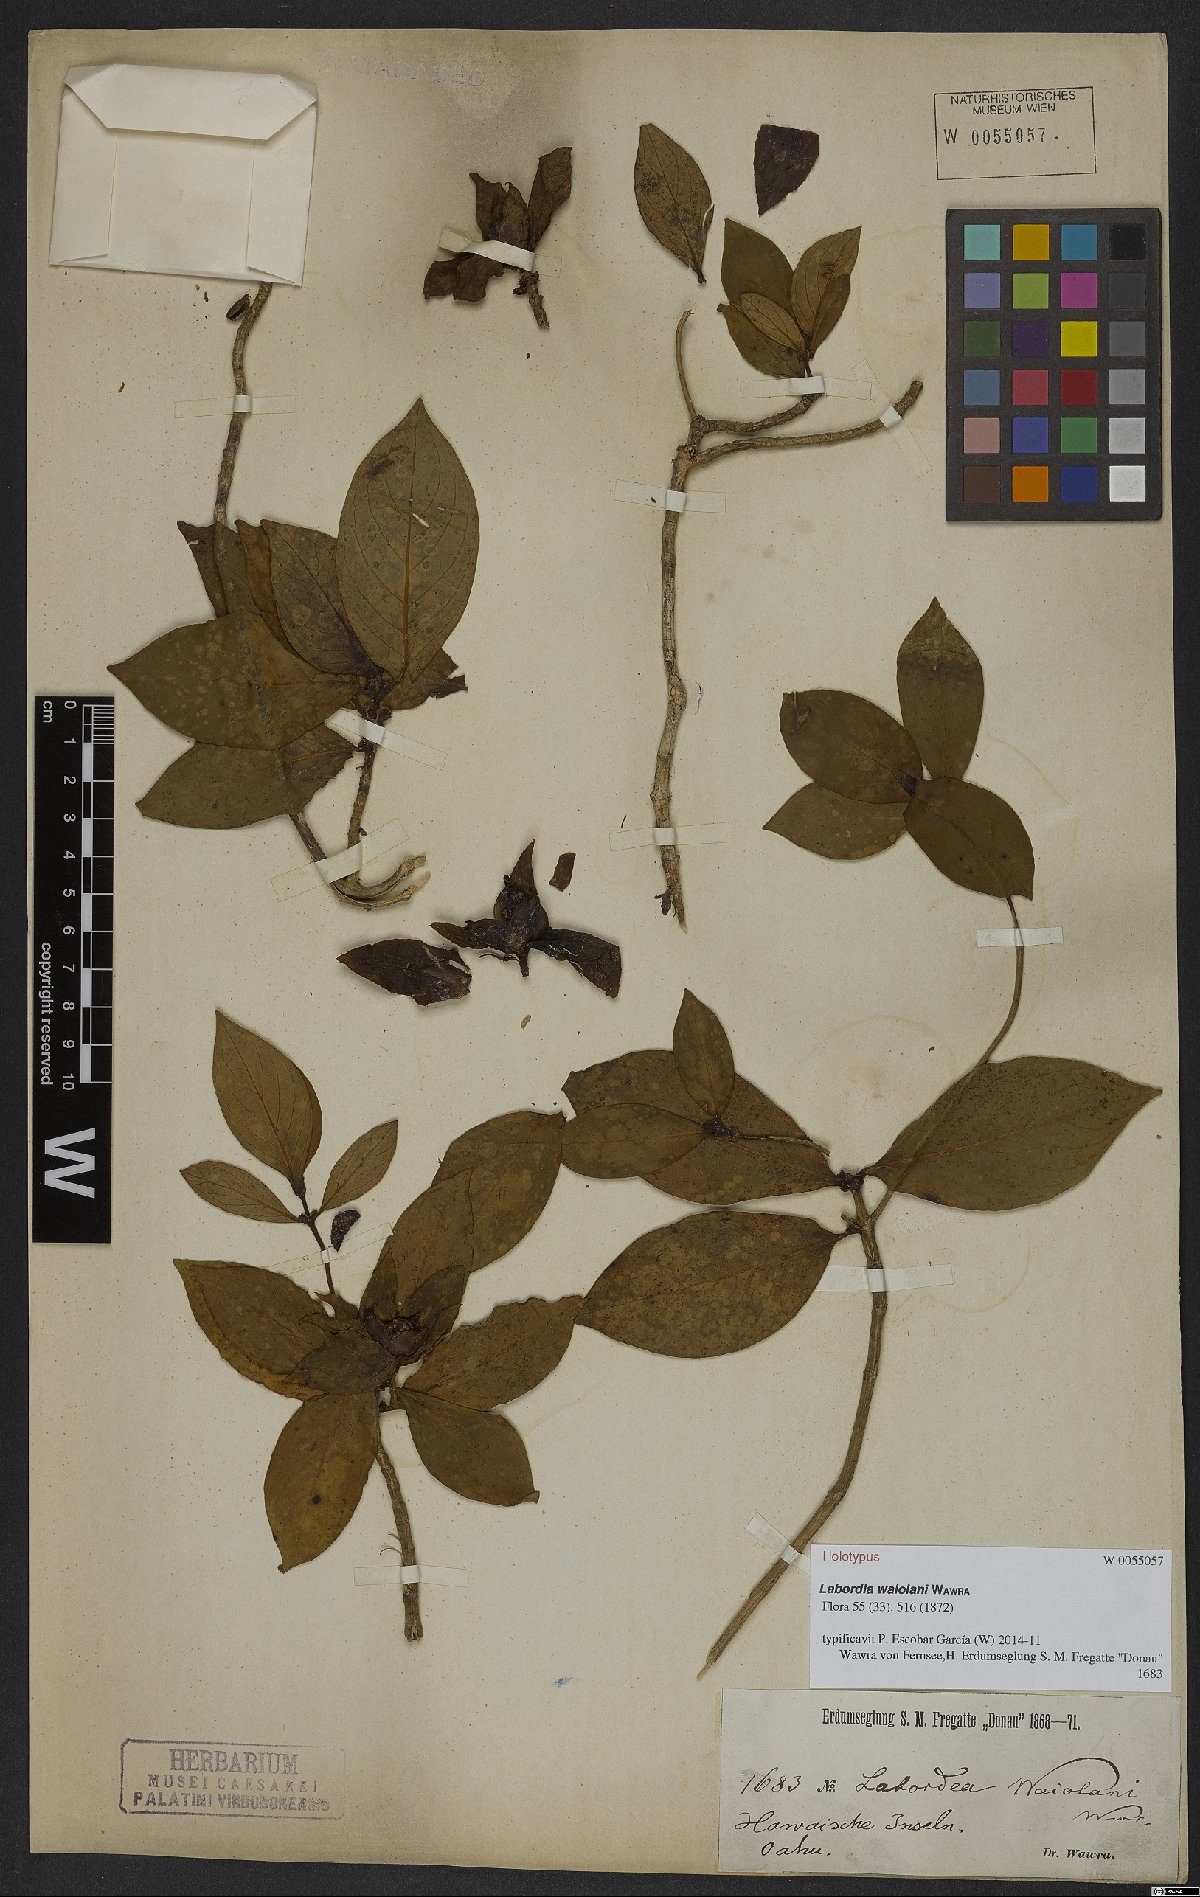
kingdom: Plantae
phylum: Tracheophyta
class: Magnoliopsida
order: Gentianales
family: Loganiaceae
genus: Geniostoma
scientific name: Geniostoma waiolani
